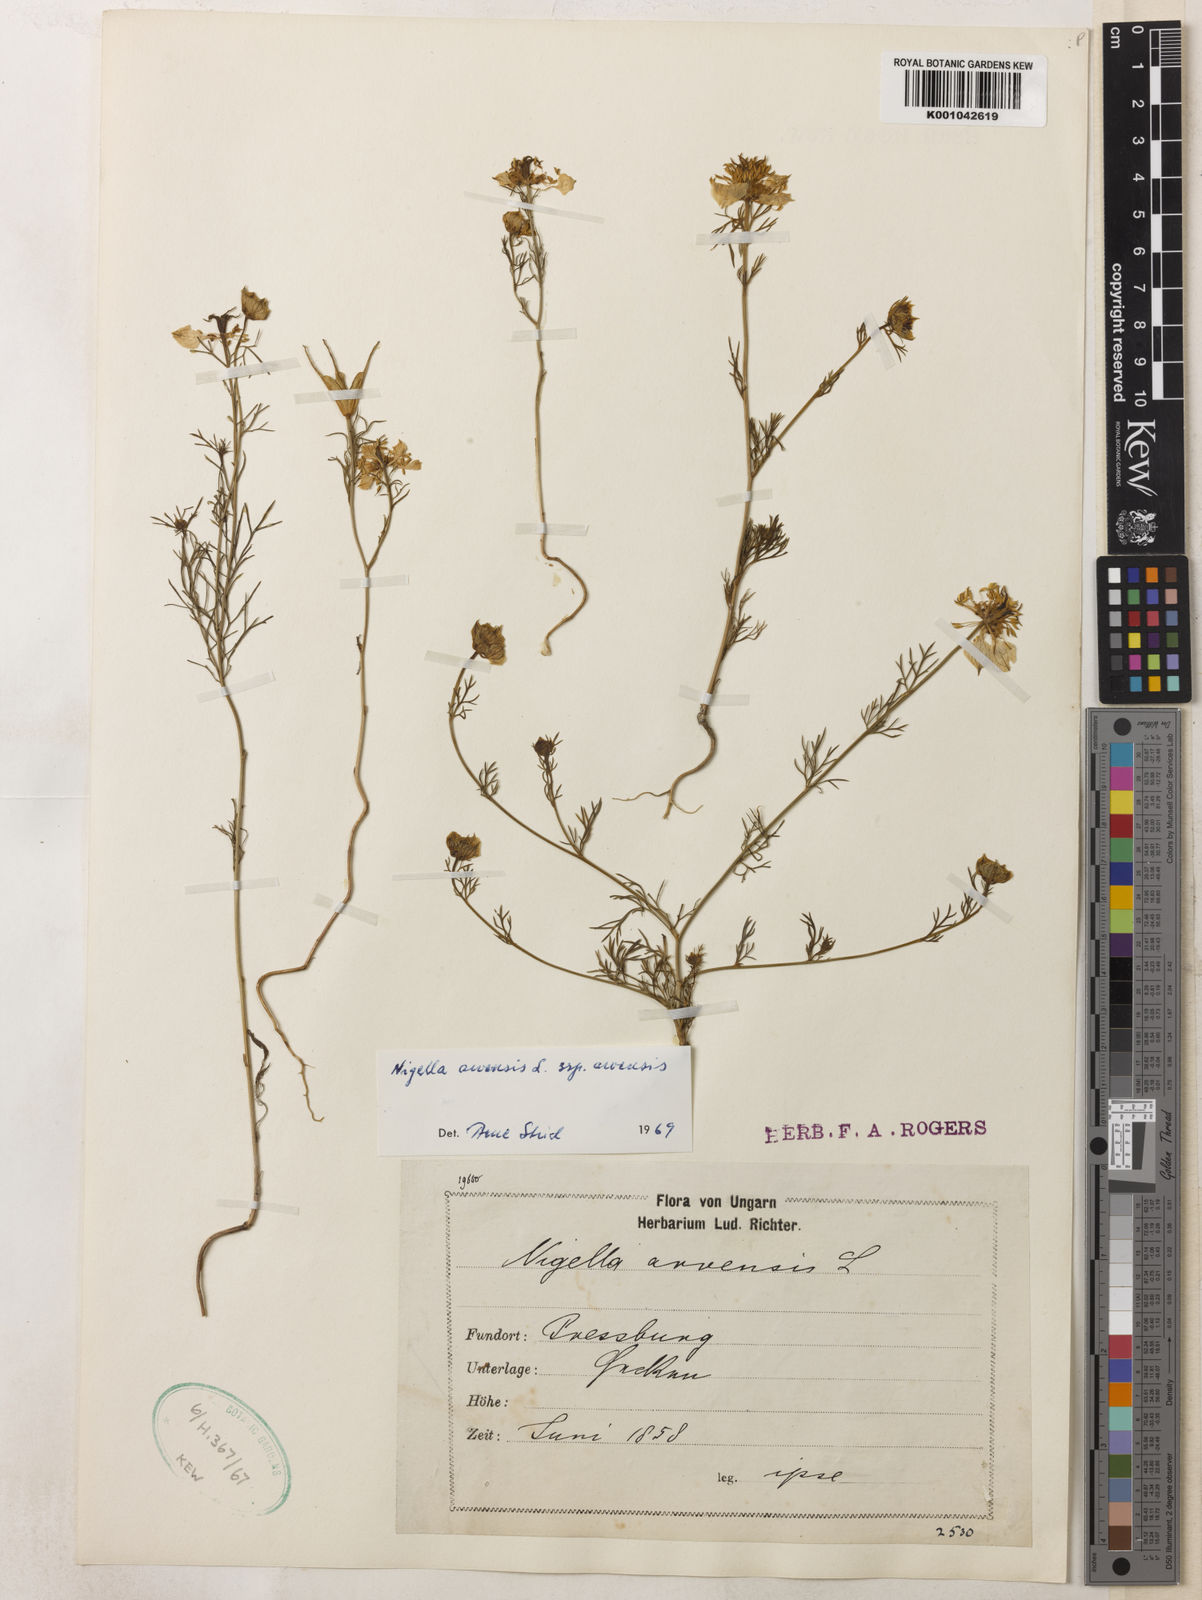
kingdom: Plantae
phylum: Tracheophyta
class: Magnoliopsida
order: Ranunculales
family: Ranunculaceae
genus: Nigella
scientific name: Nigella arvensis
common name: Wild fennel-flower
